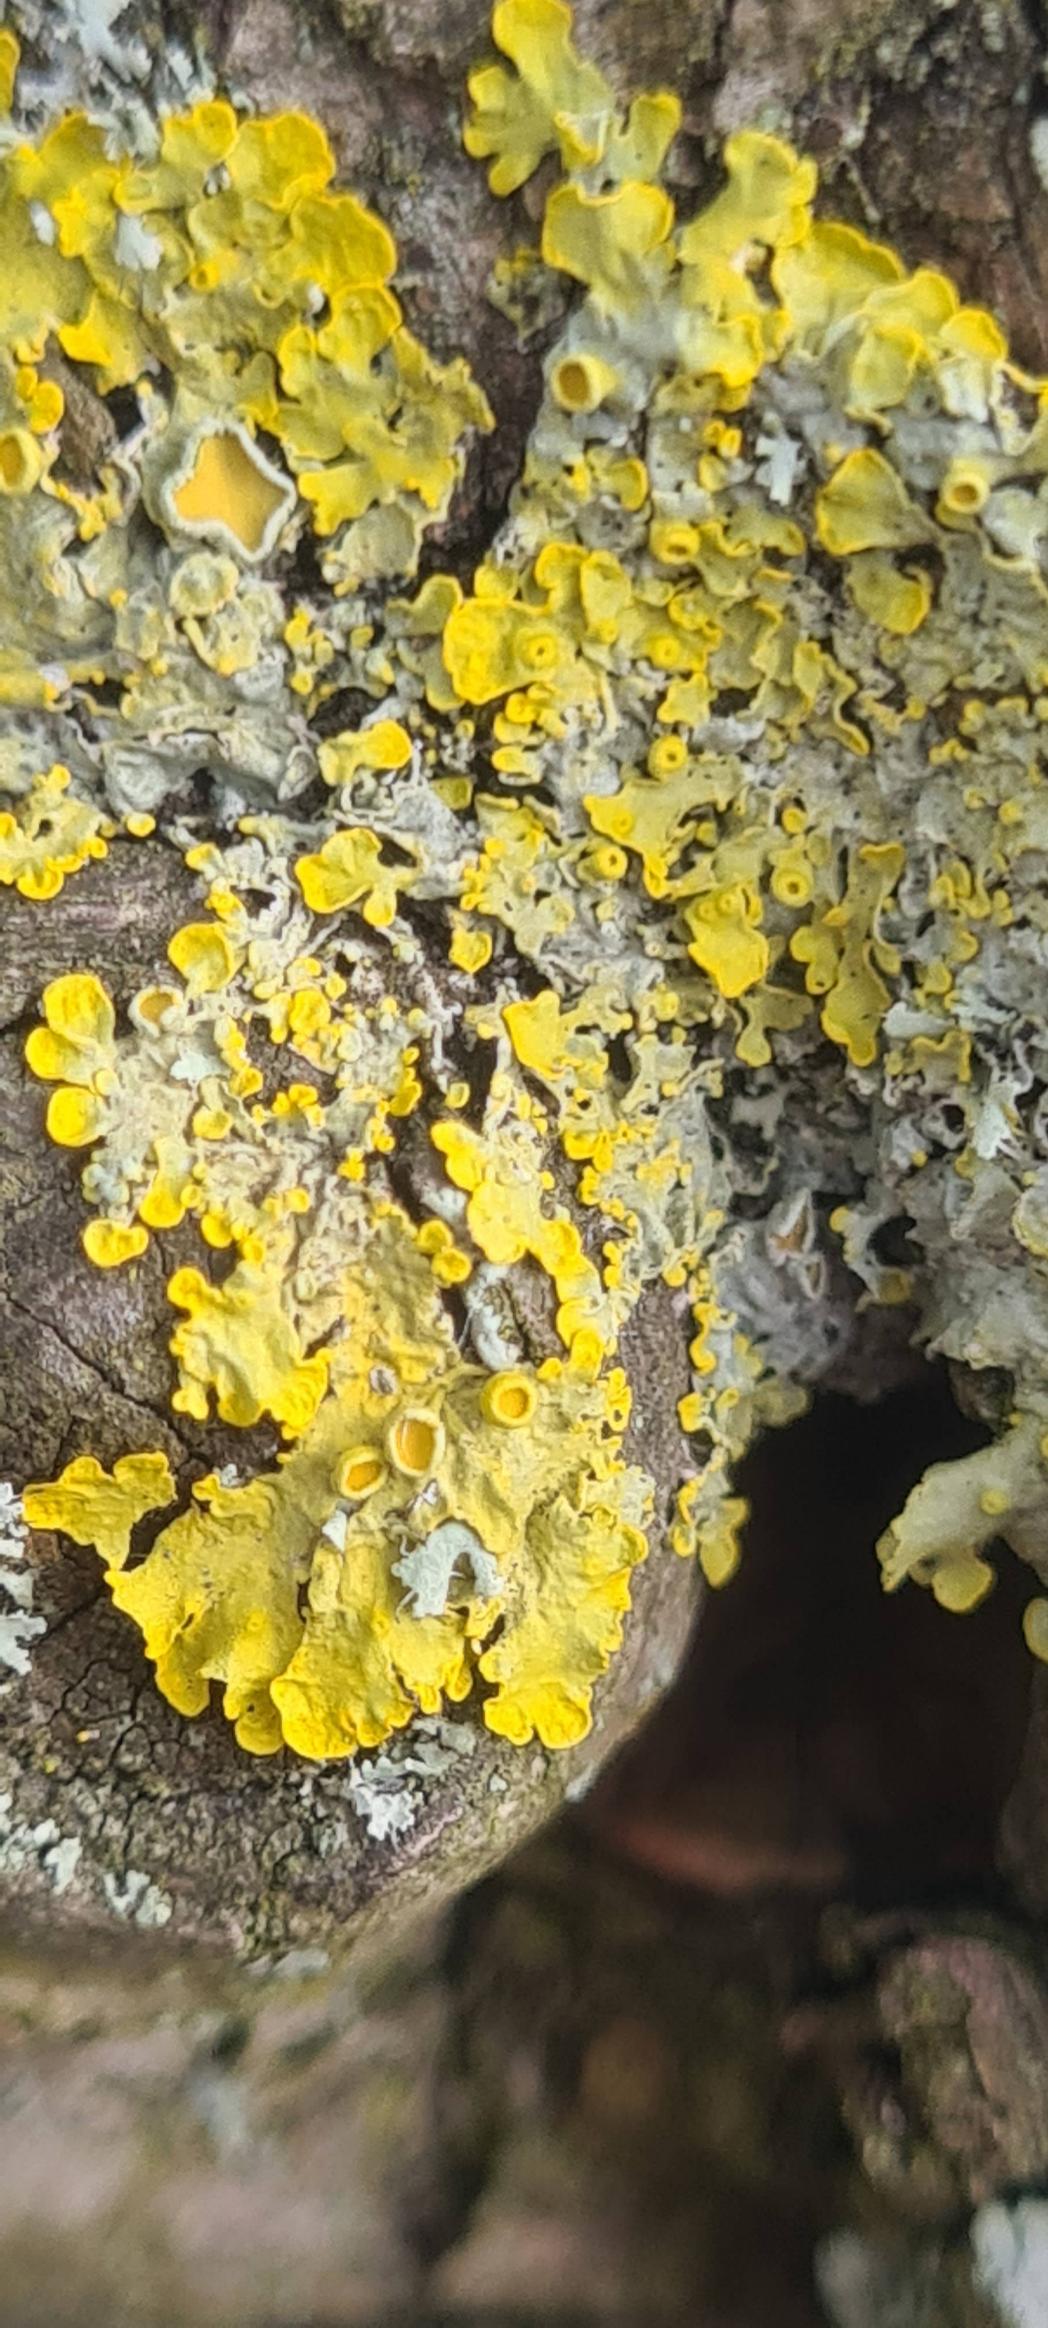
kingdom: Fungi
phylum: Ascomycota
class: Lecanoromycetes
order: Teloschistales
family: Teloschistaceae
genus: Xanthoria
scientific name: Xanthoria parietina
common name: Almindelig væggelav
